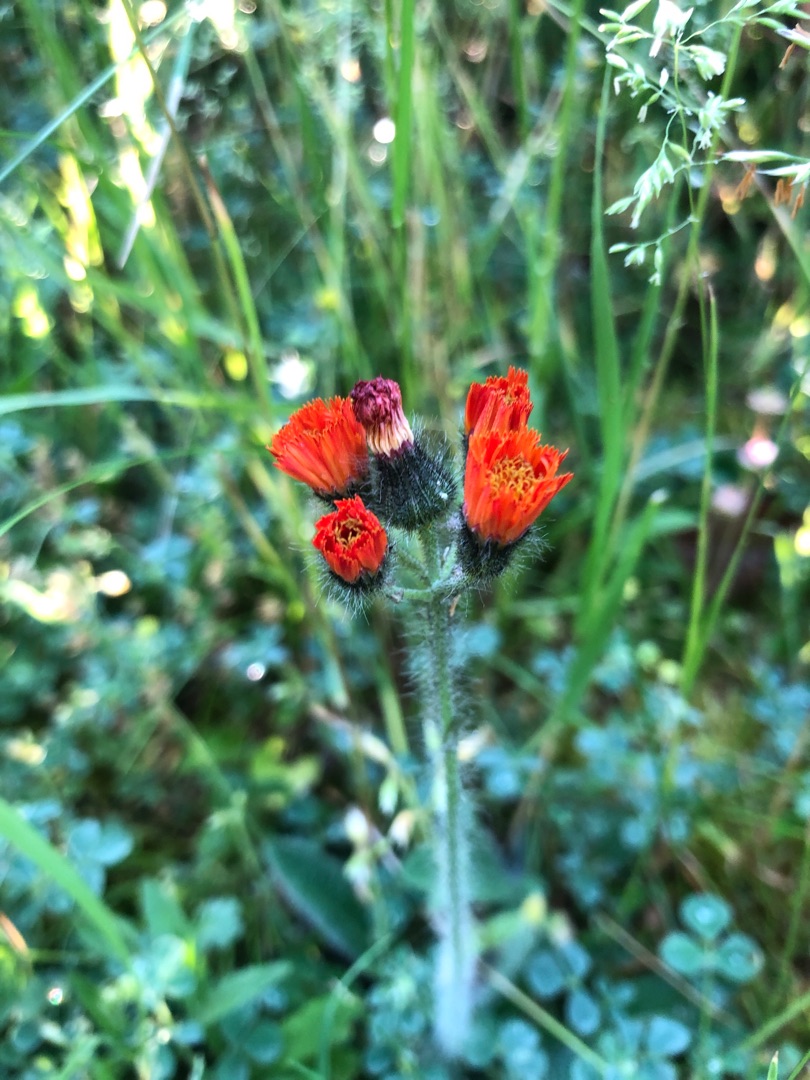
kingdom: Plantae
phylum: Tracheophyta
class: Magnoliopsida
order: Asterales
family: Asteraceae
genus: Pilosella
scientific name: Pilosella aurantiaca
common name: Pomerans-høgeurt
